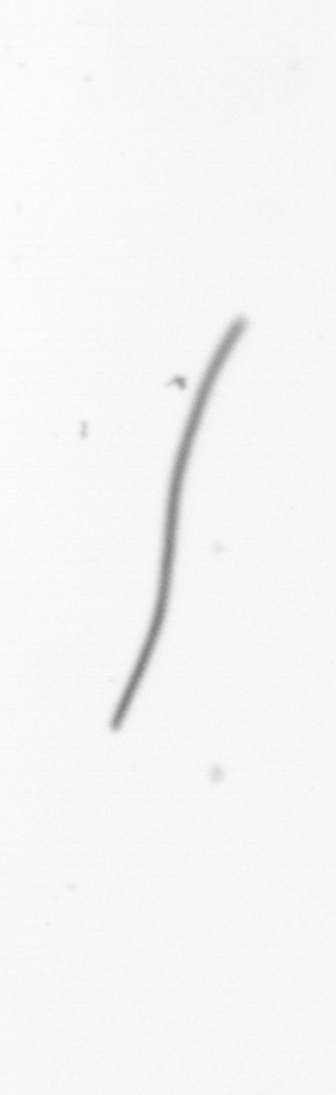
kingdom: Chromista
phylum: Ochrophyta
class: Bacillariophyceae
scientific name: Bacillariophyceae
